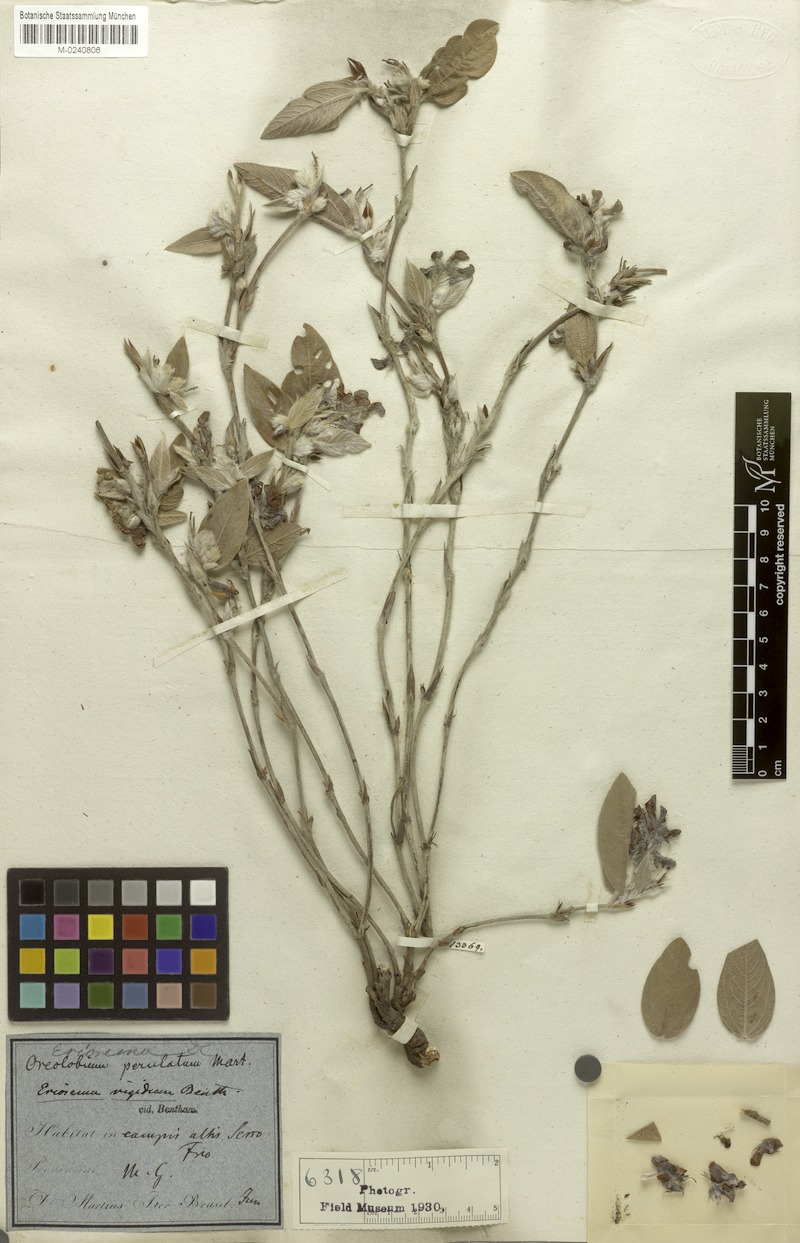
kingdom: Plantae
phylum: Tracheophyta
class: Magnoliopsida
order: Fabales
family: Fabaceae
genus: Eriosema
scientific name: Eriosema rigidum
